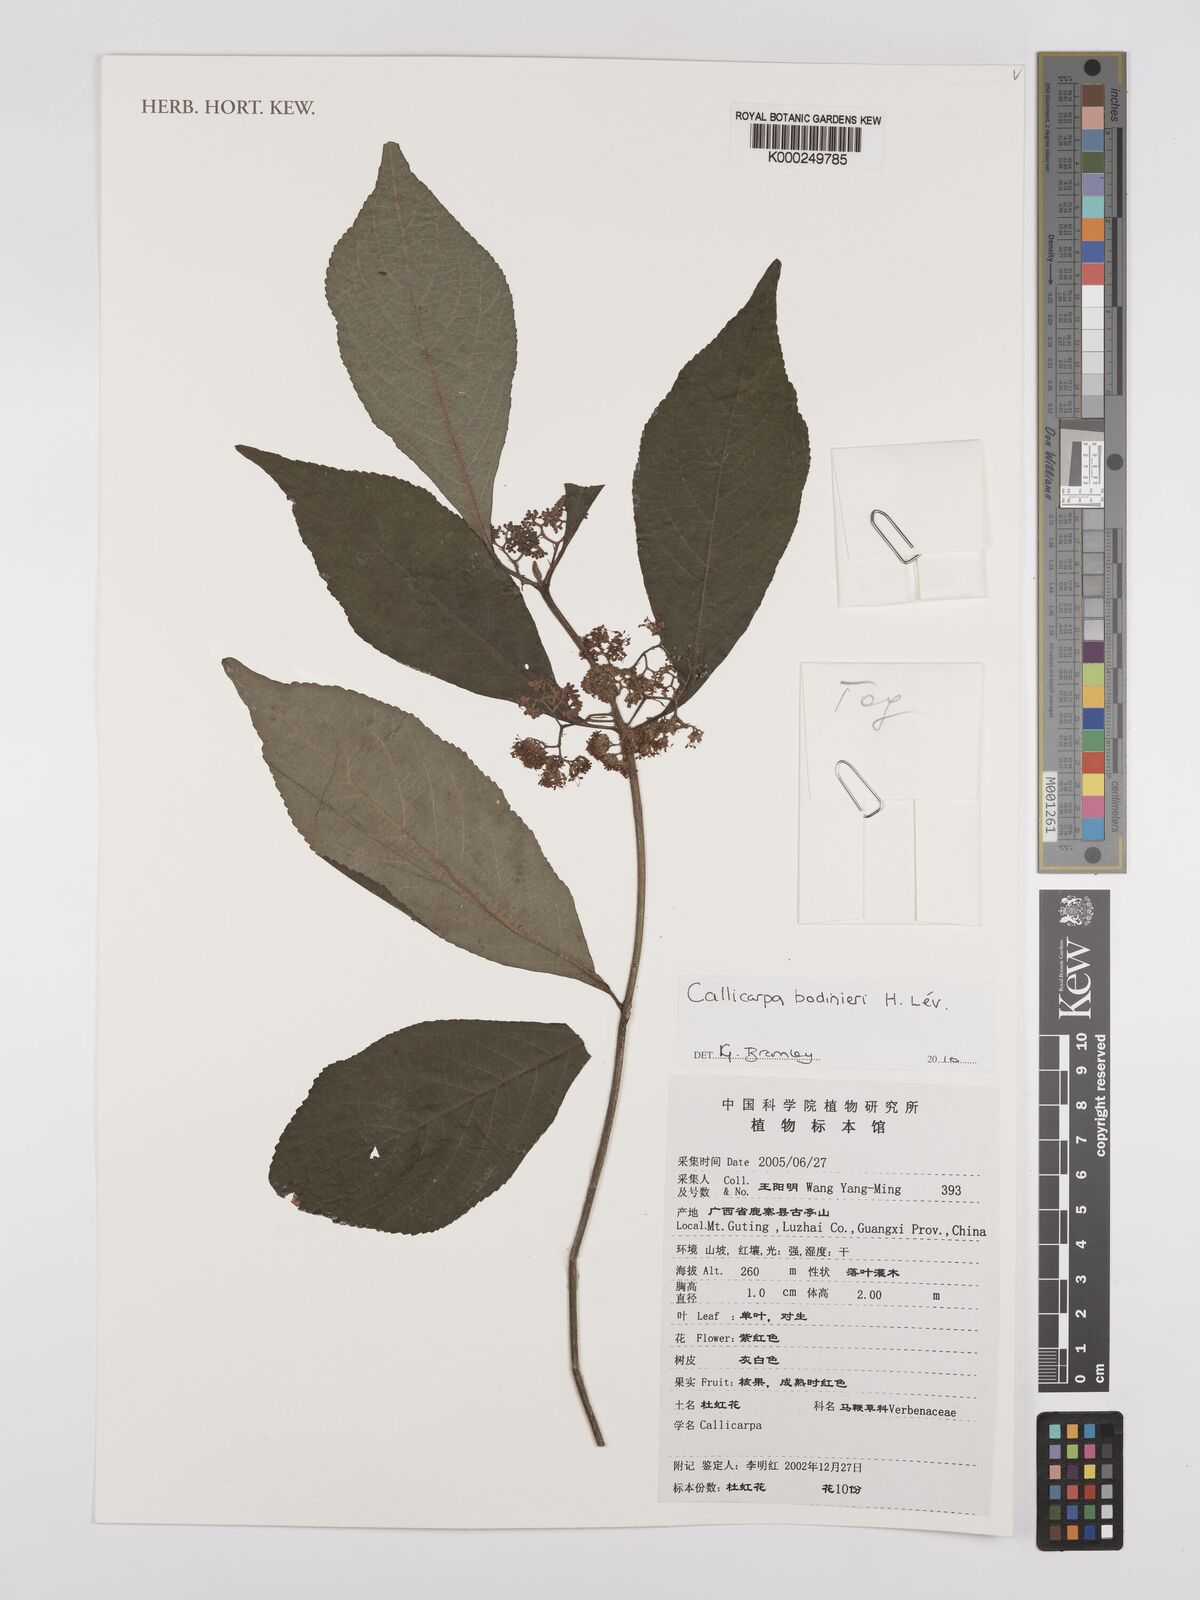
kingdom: Plantae
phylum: Tracheophyta
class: Magnoliopsida
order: Lamiales
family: Lamiaceae
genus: Callicarpa
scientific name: Callicarpa bodinieri
